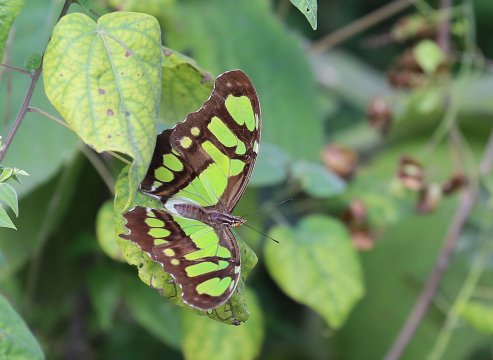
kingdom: Animalia
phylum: Arthropoda
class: Insecta
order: Lepidoptera
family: Nymphalidae
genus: Siproeta
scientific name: Siproeta stelenes
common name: Malachite
